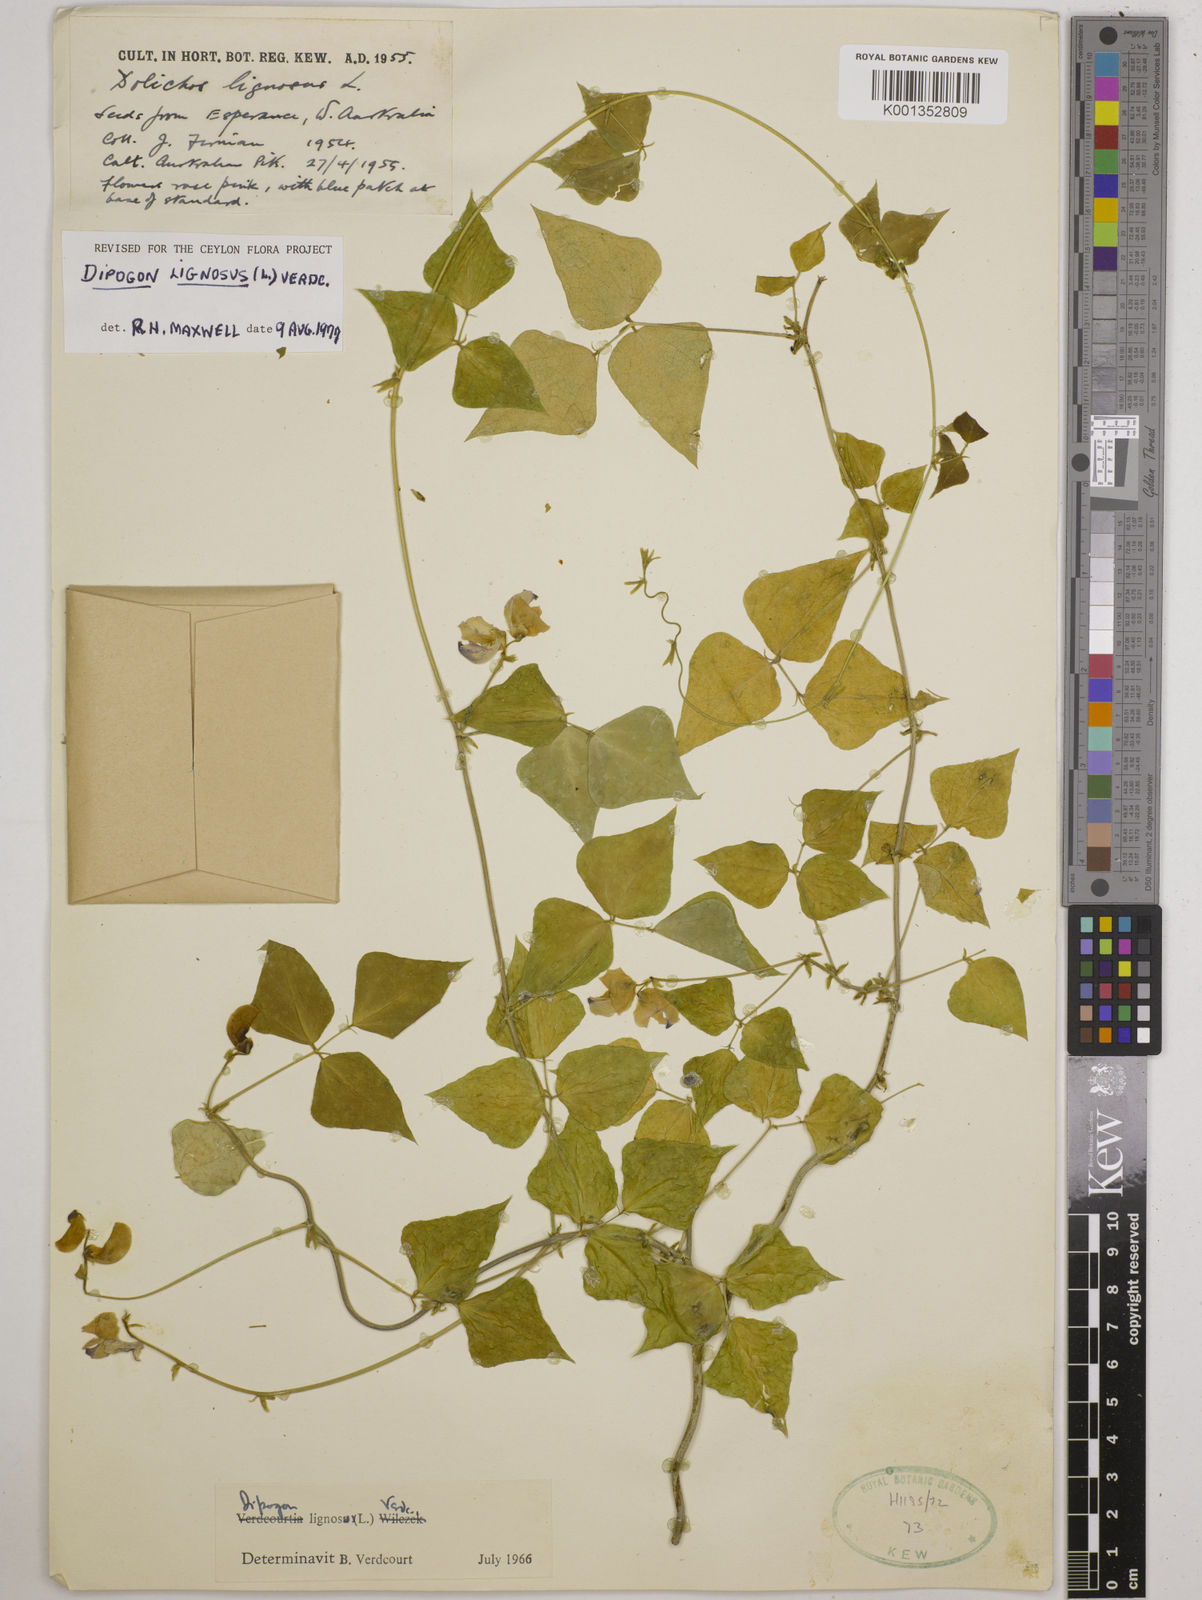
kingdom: Plantae
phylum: Tracheophyta
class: Magnoliopsida
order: Fabales
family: Fabaceae
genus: Dipogon
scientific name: Dipogon lignosus
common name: Okie bean
